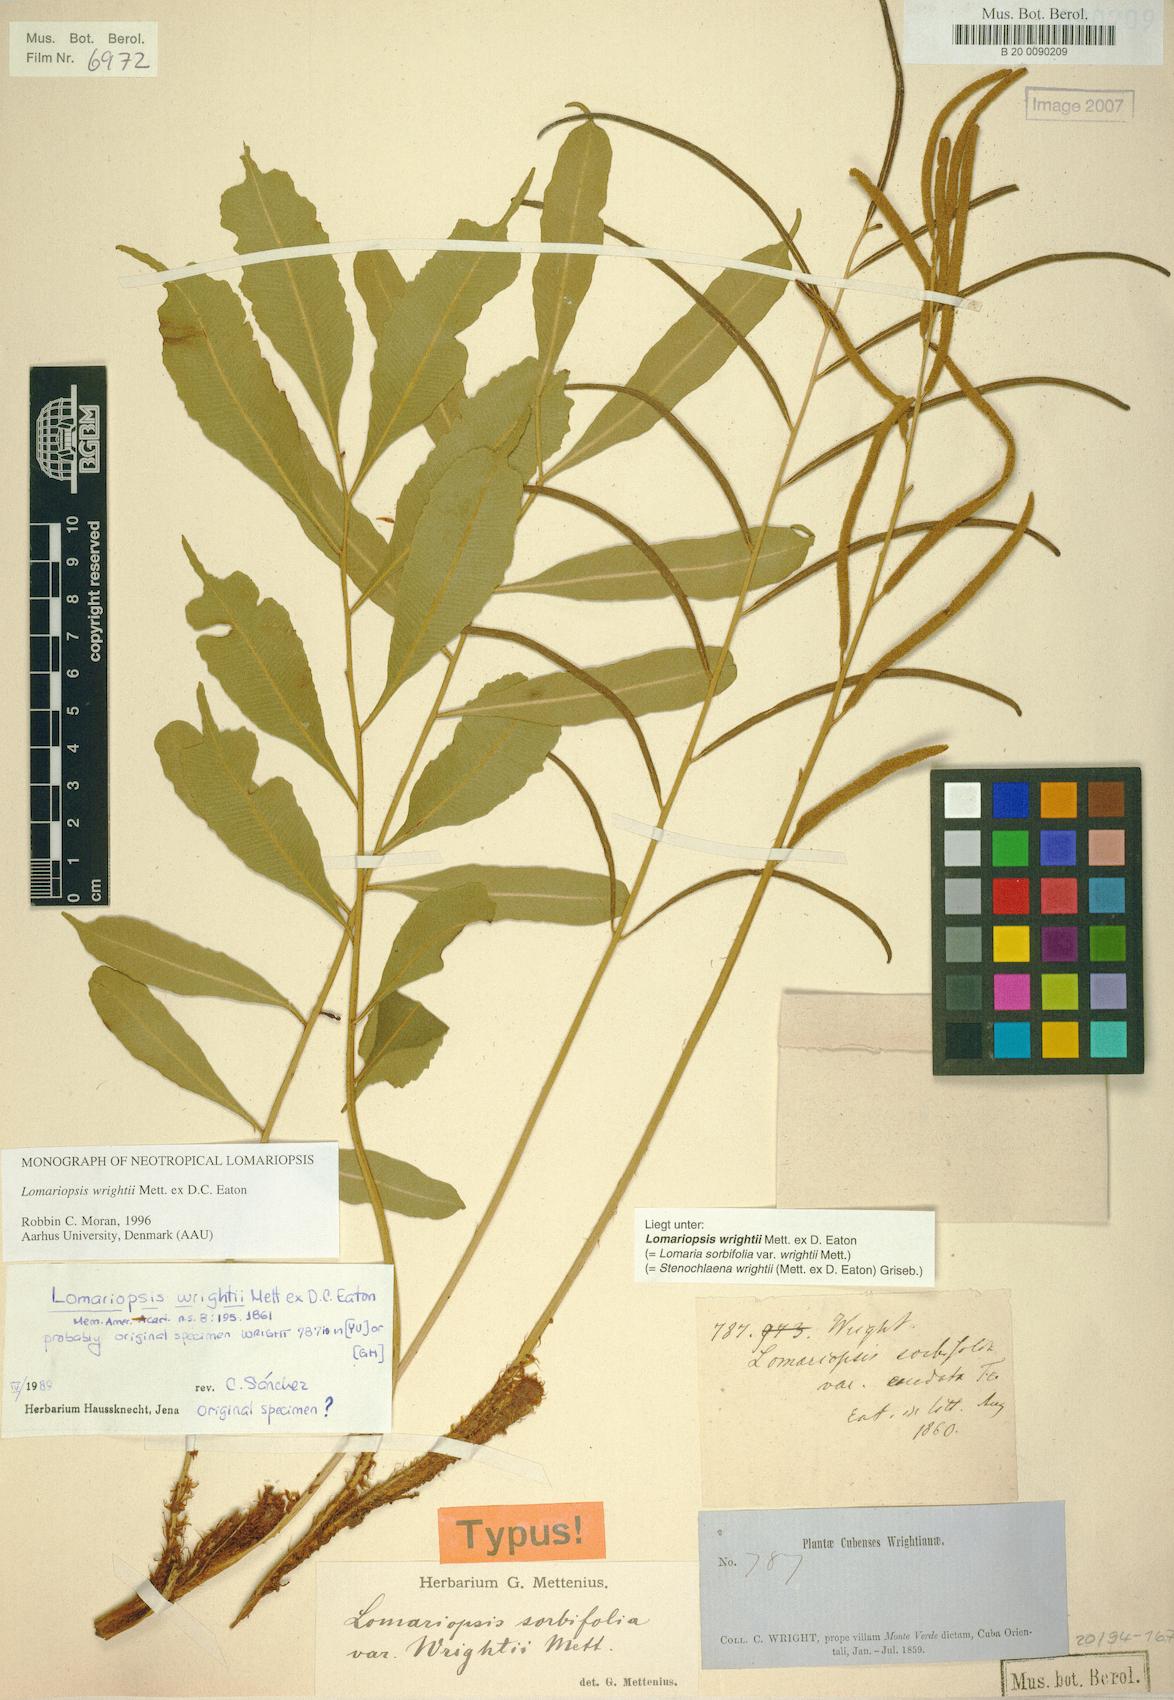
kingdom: Plantae
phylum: Tracheophyta
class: Polypodiopsida
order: Polypodiales
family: Lomariopsidaceae
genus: Lomariopsis
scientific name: Lomariopsis wrightii
